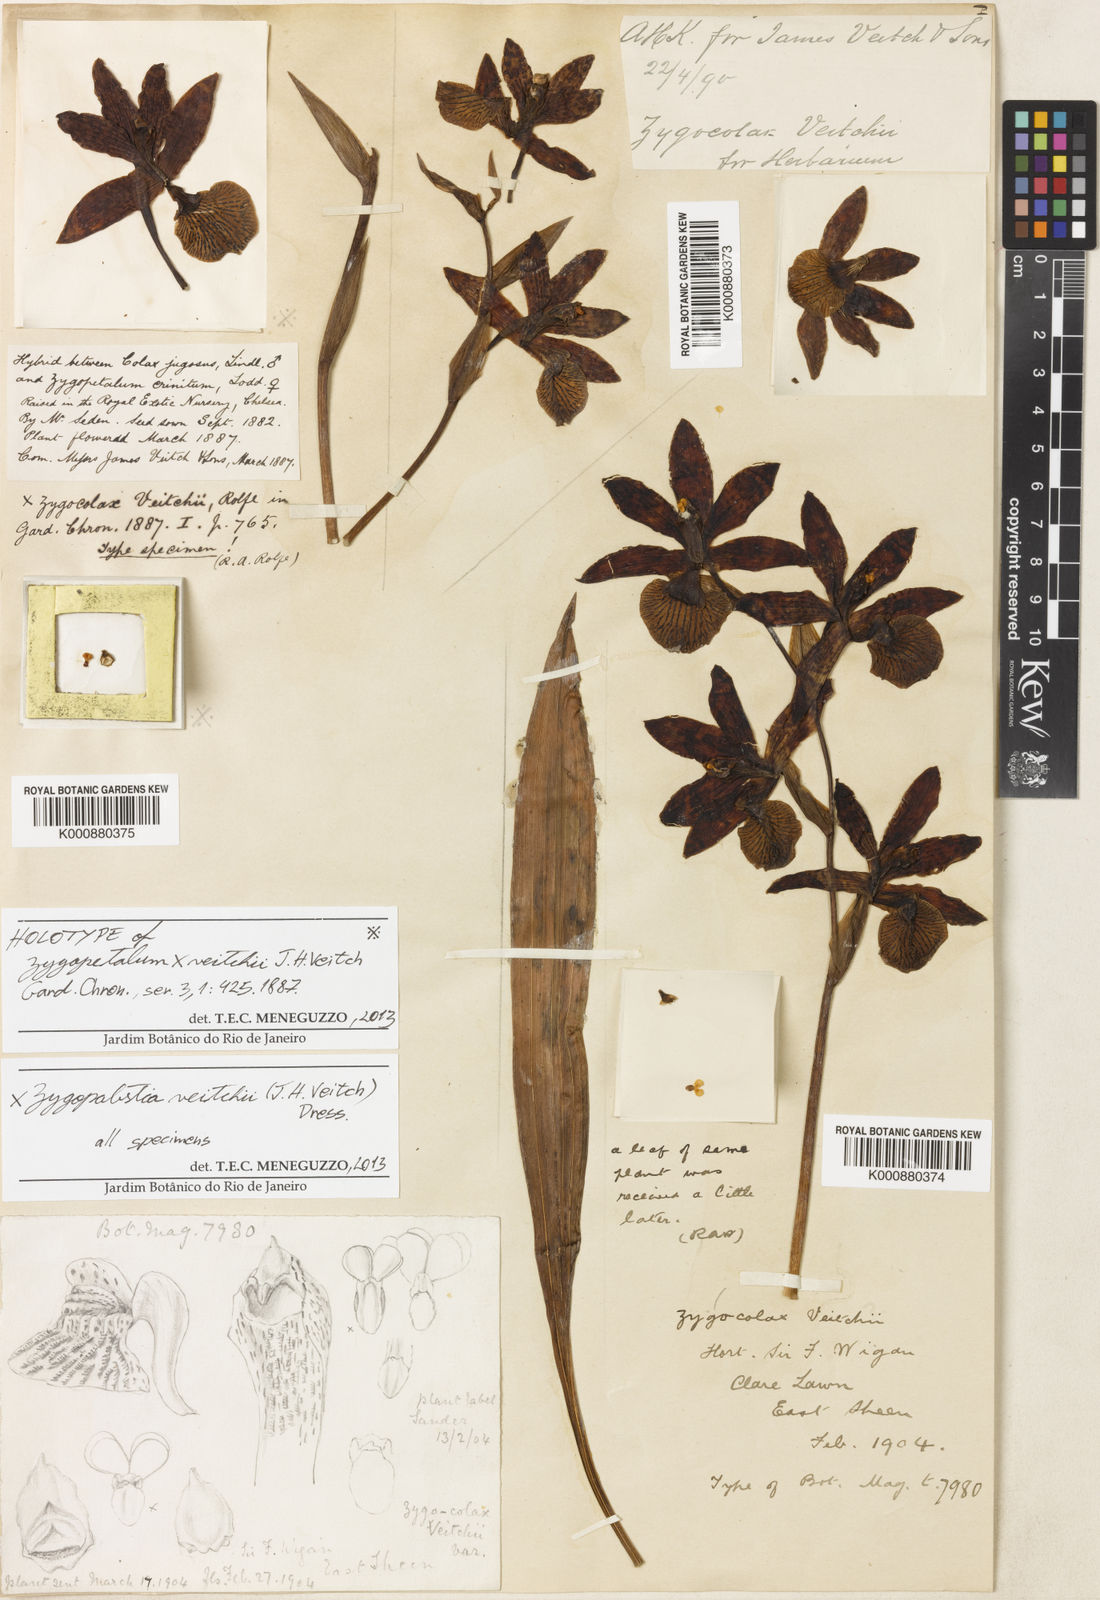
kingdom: Plantae
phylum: Tracheophyta
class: Liliopsida
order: Asparagales
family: Orchidaceae
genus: Zygopabstia
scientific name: Zygopabstia veitchii
